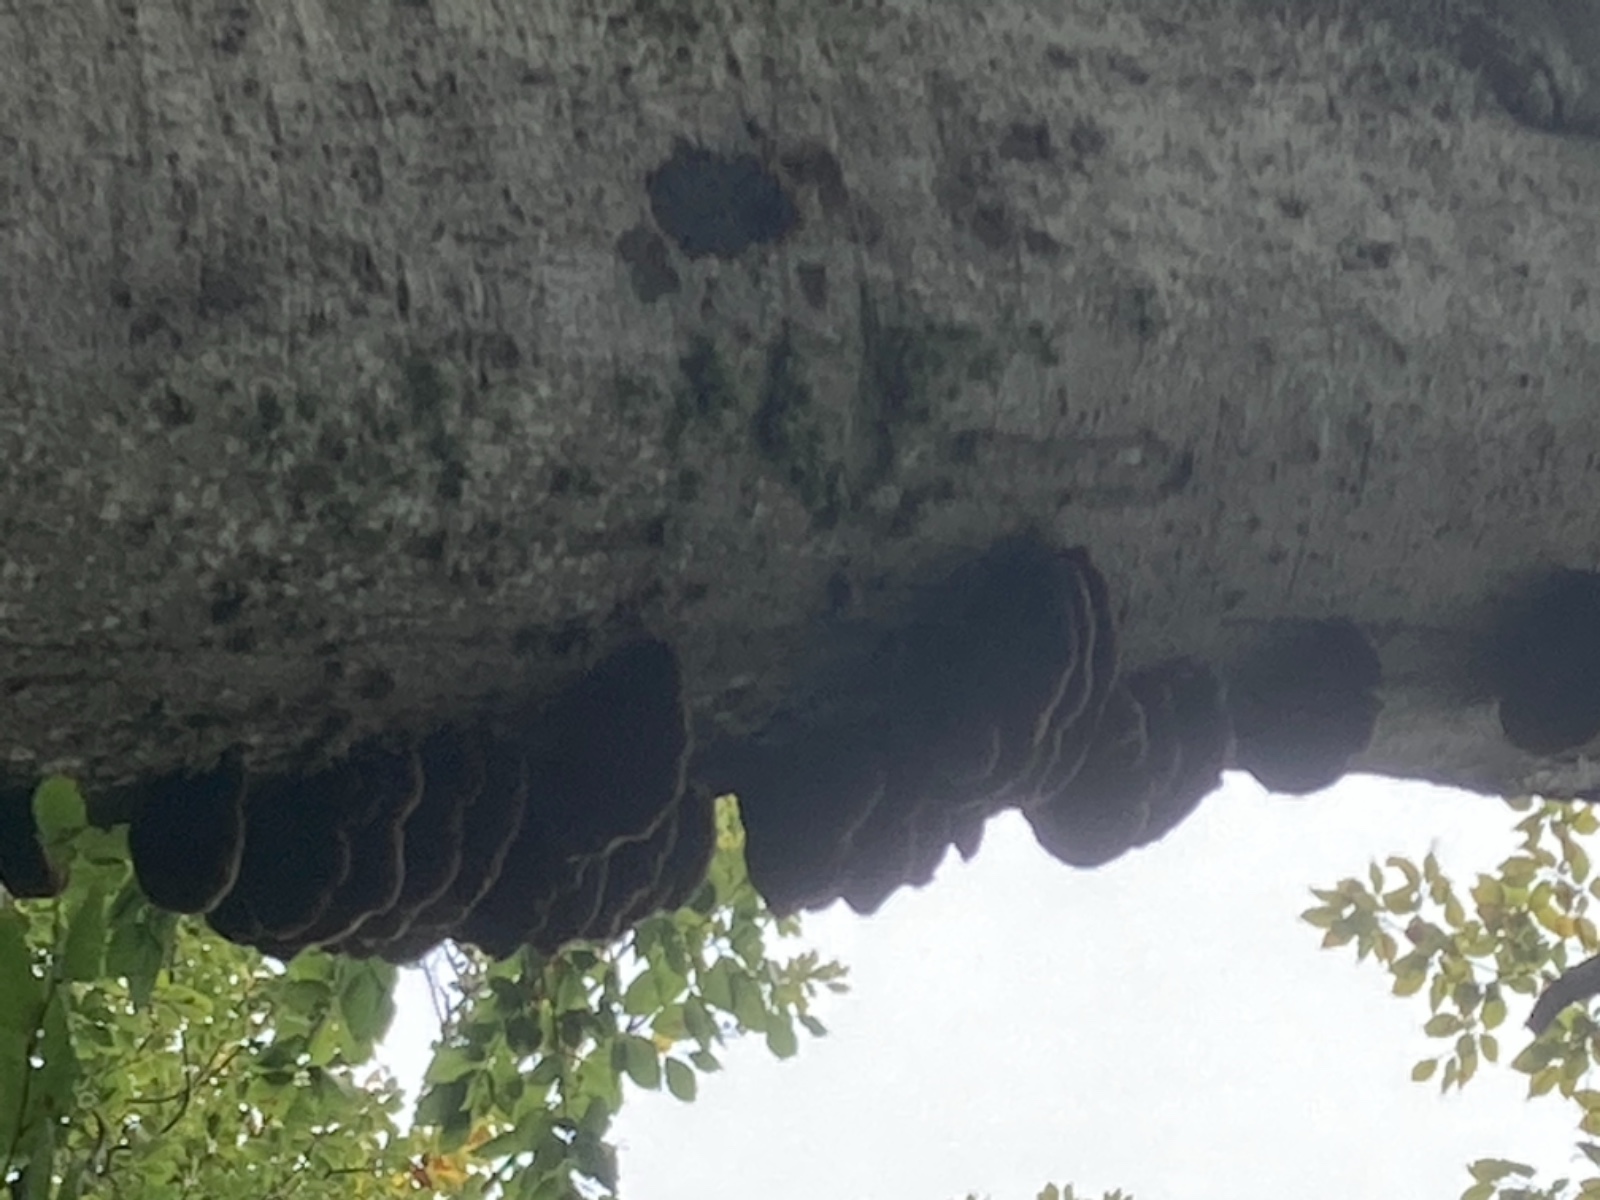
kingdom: Fungi
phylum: Basidiomycota
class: Agaricomycetes
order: Hymenochaetales
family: Hymenochaetaceae
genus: Inonotus
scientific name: Inonotus cuticularis
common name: kroghåret spejlporesvamp
